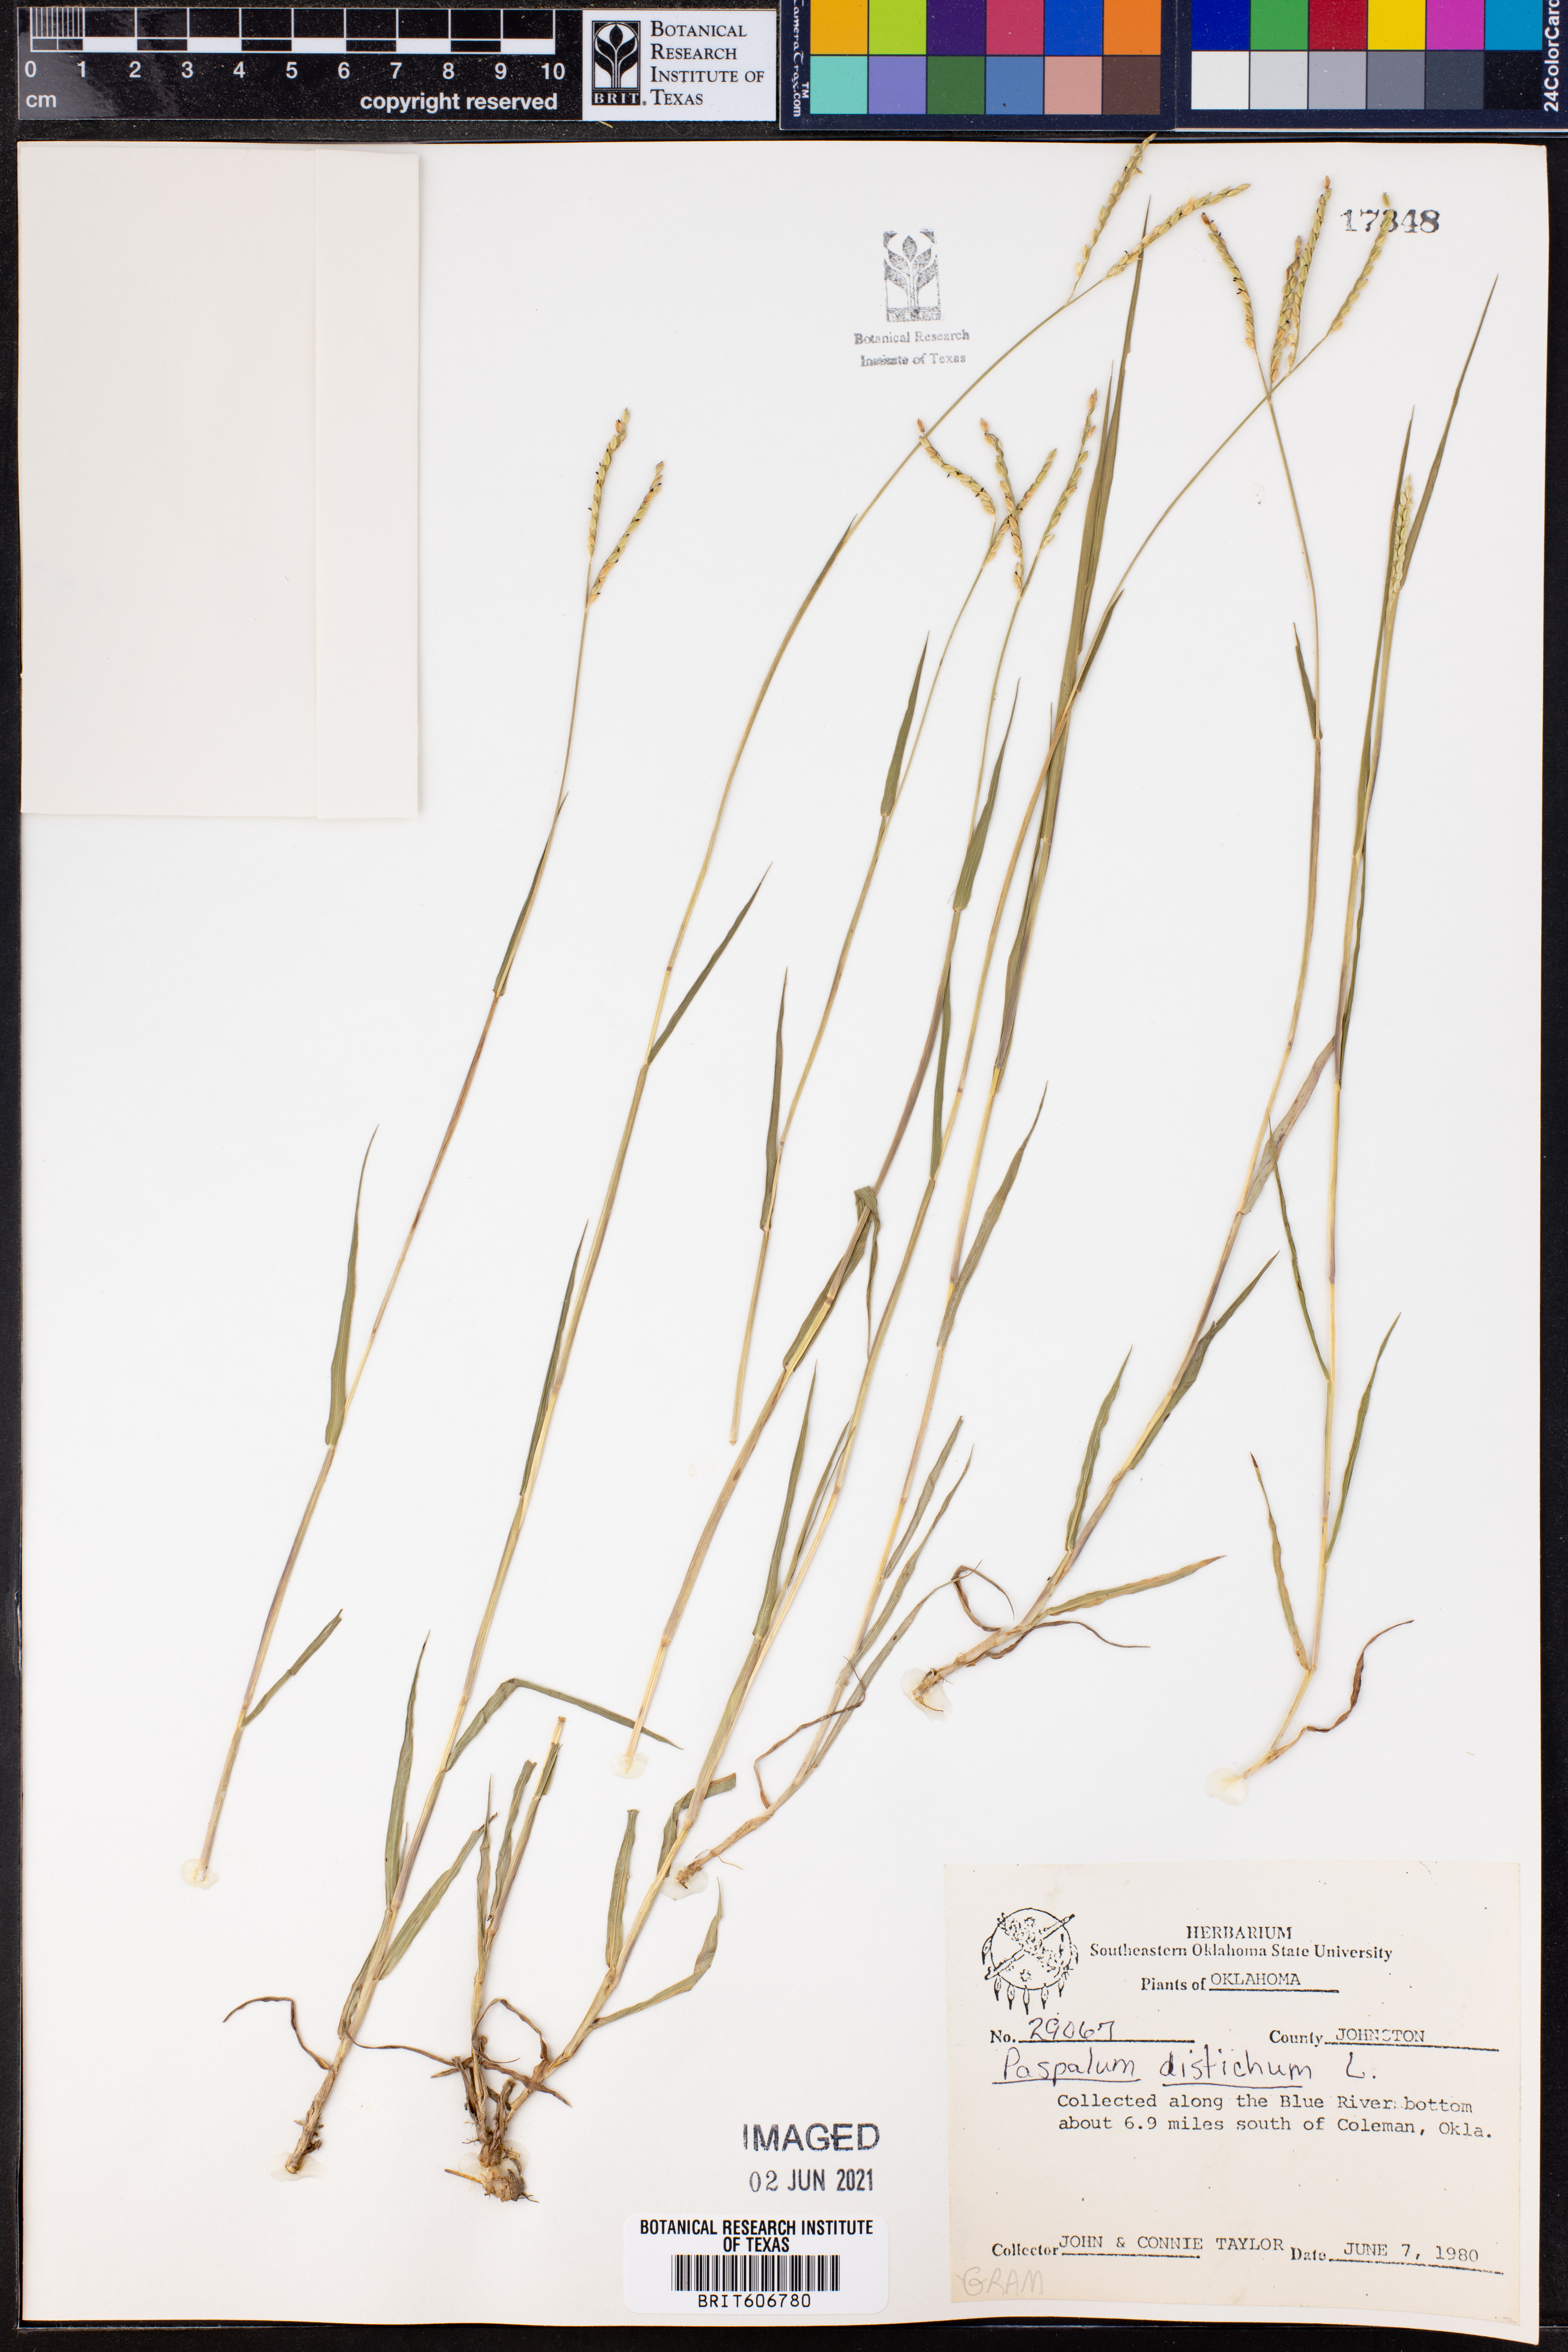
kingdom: Plantae
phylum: Tracheophyta
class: Liliopsida
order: Poales
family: Poaceae
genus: Paspalum
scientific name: Paspalum distichum
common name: Knotgrass
